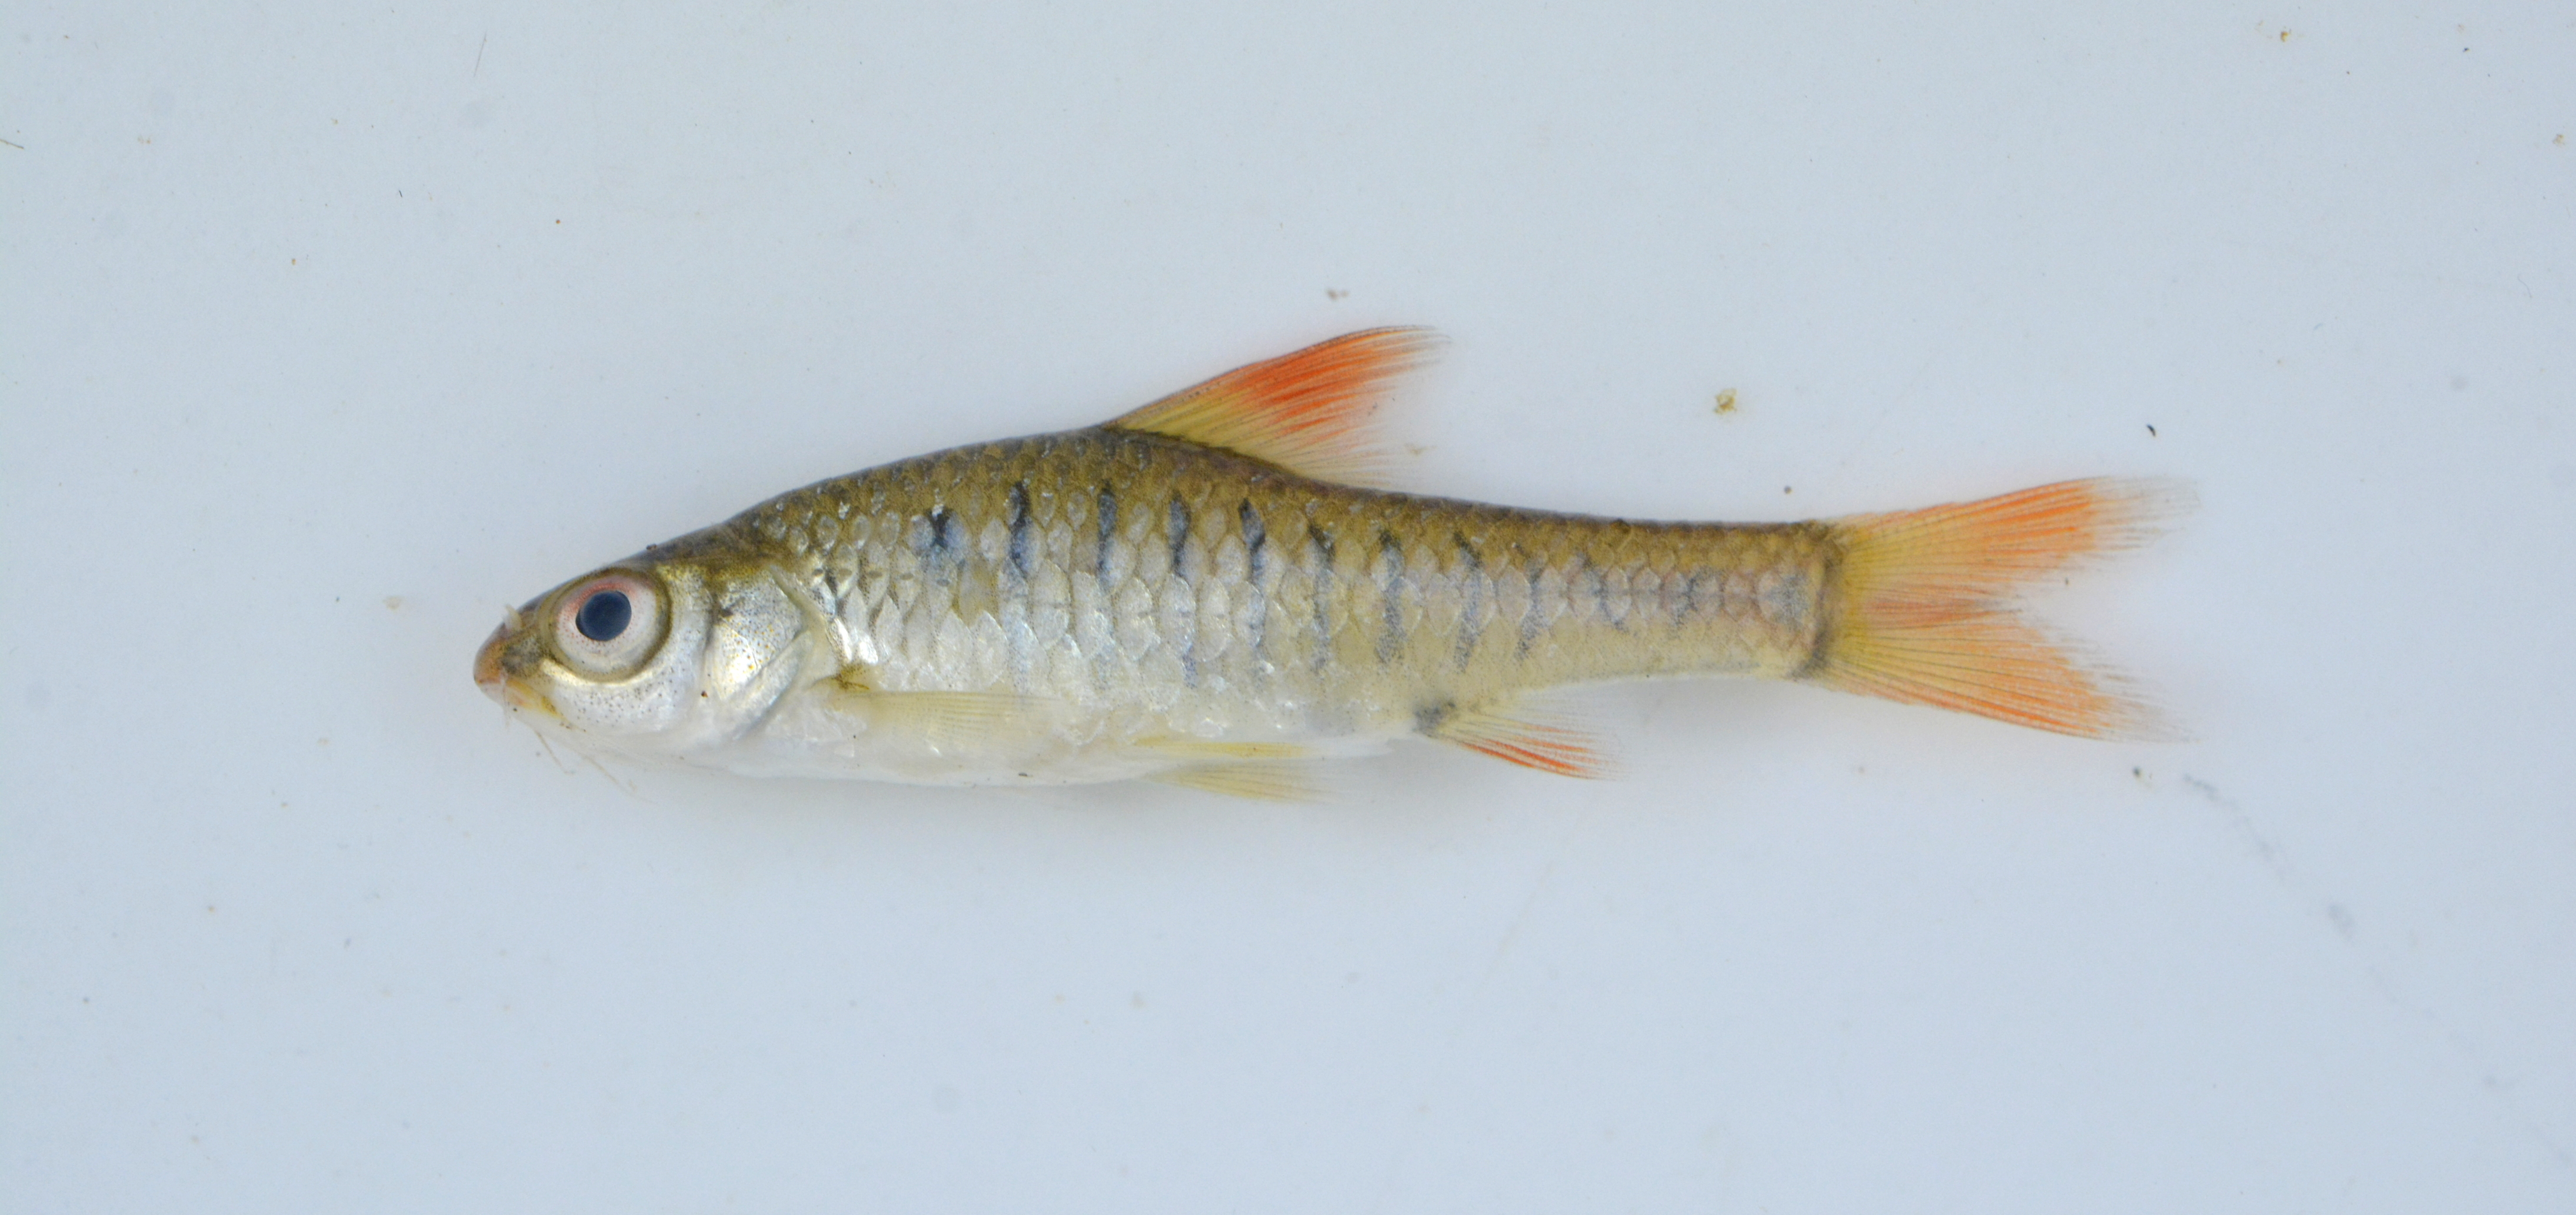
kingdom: Animalia
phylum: Chordata
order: Cypriniformes
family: Cyprinidae
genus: Enteromius
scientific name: Enteromius fasciolatus
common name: Red barb
